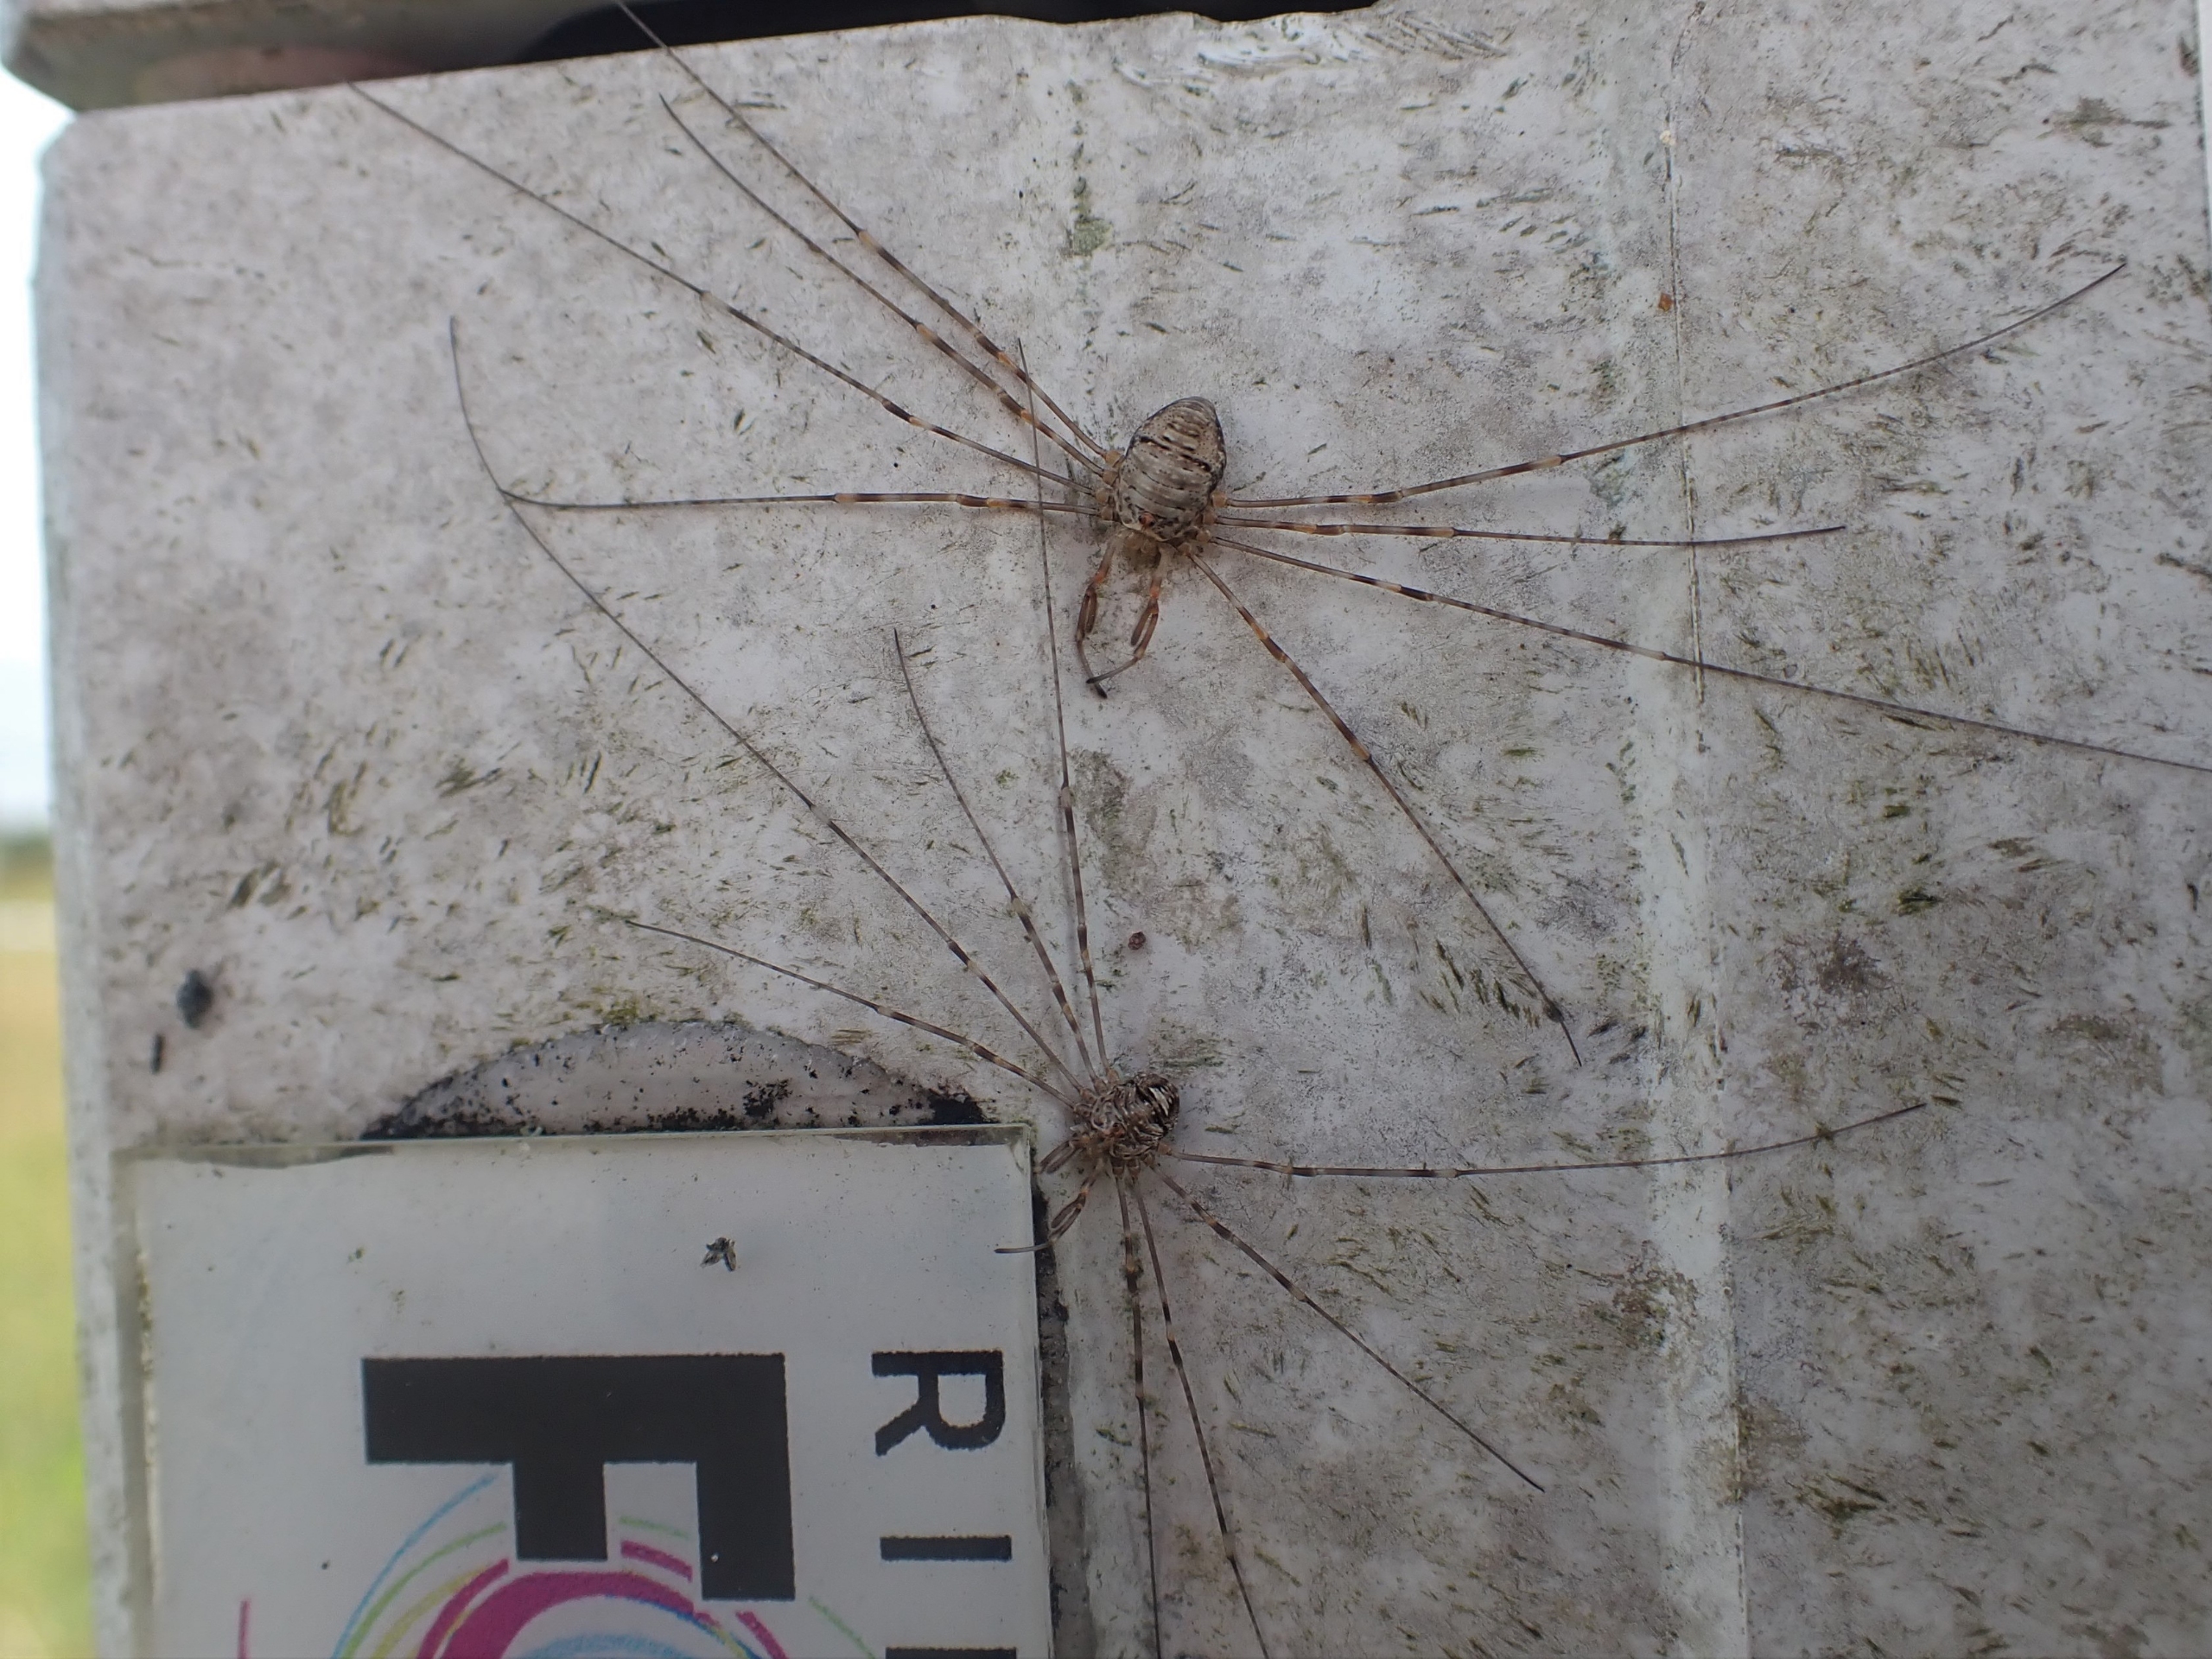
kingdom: Animalia
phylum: Arthropoda
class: Arachnida
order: Opiliones
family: Phalangiidae
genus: Dicranopalpus
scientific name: Dicranopalpus ramosus
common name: Gaffelmejer
